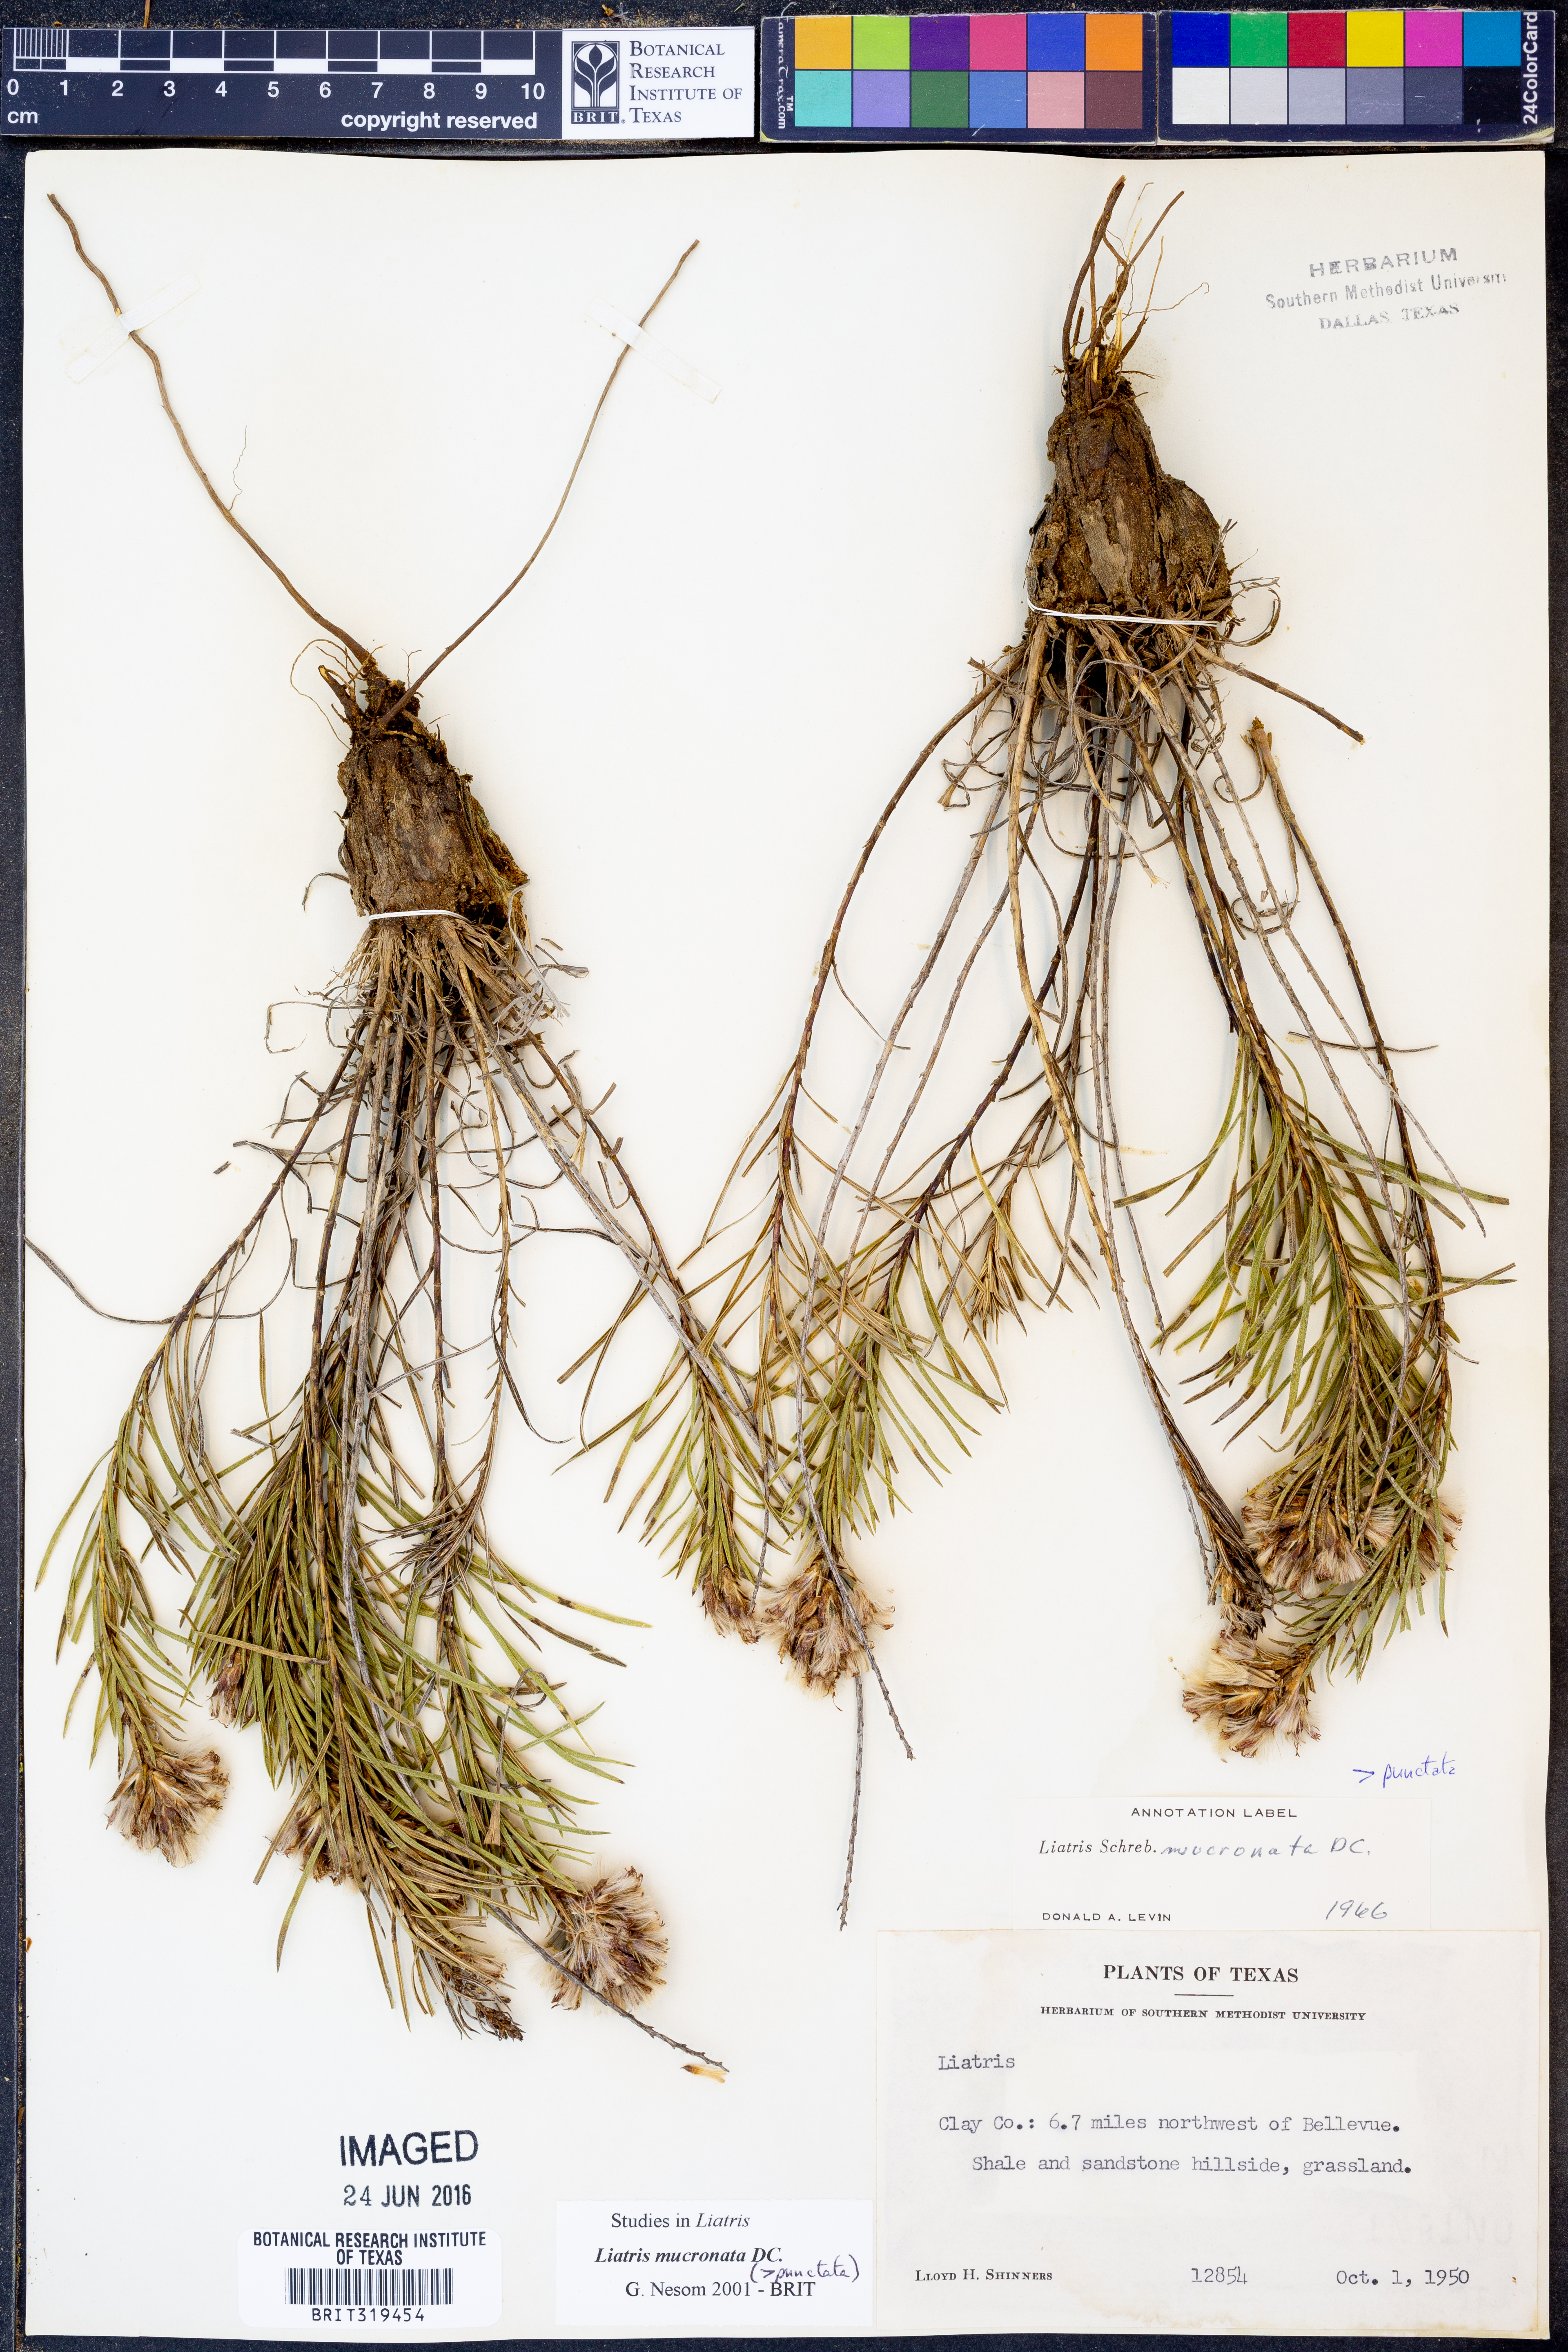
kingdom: Plantae
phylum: Tracheophyta
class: Magnoliopsida
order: Asterales
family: Asteraceae
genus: Liatris
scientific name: Liatris mucronata
